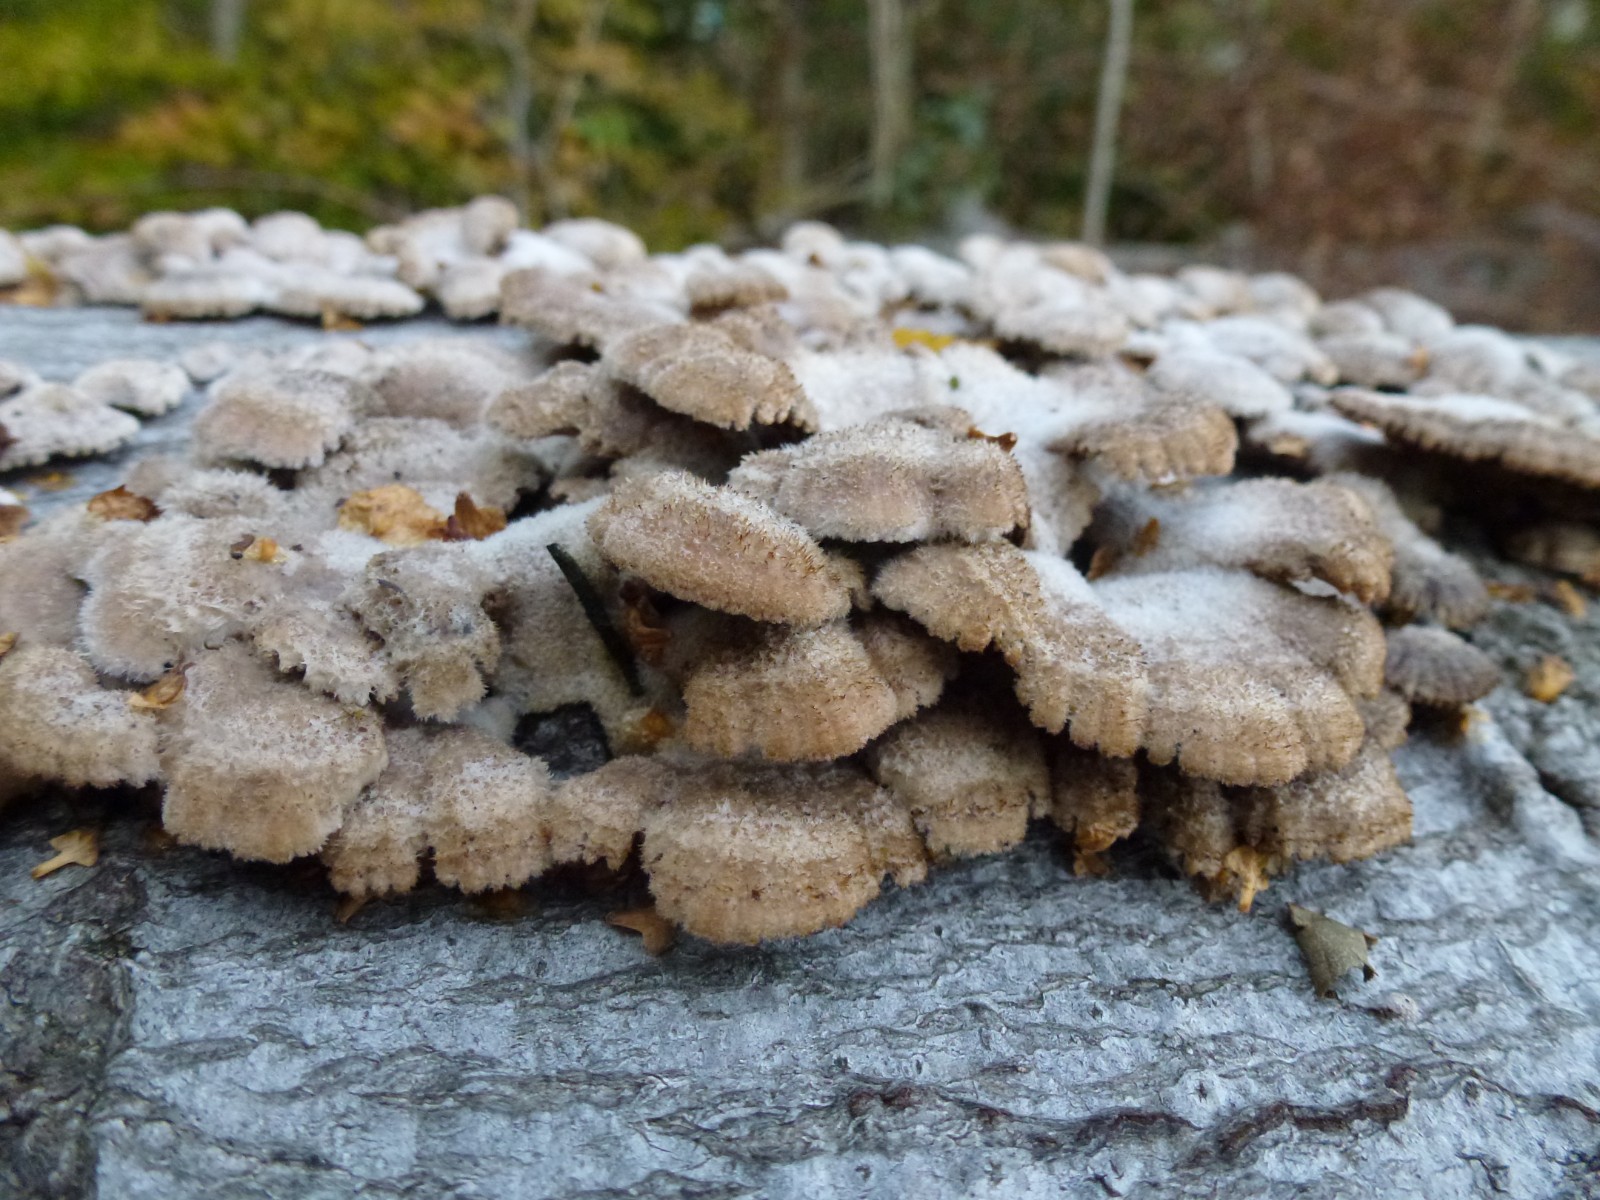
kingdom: Fungi
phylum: Basidiomycota
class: Agaricomycetes
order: Agaricales
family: Schizophyllaceae
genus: Schizophyllum
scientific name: Schizophyllum commune
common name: kløvblad
